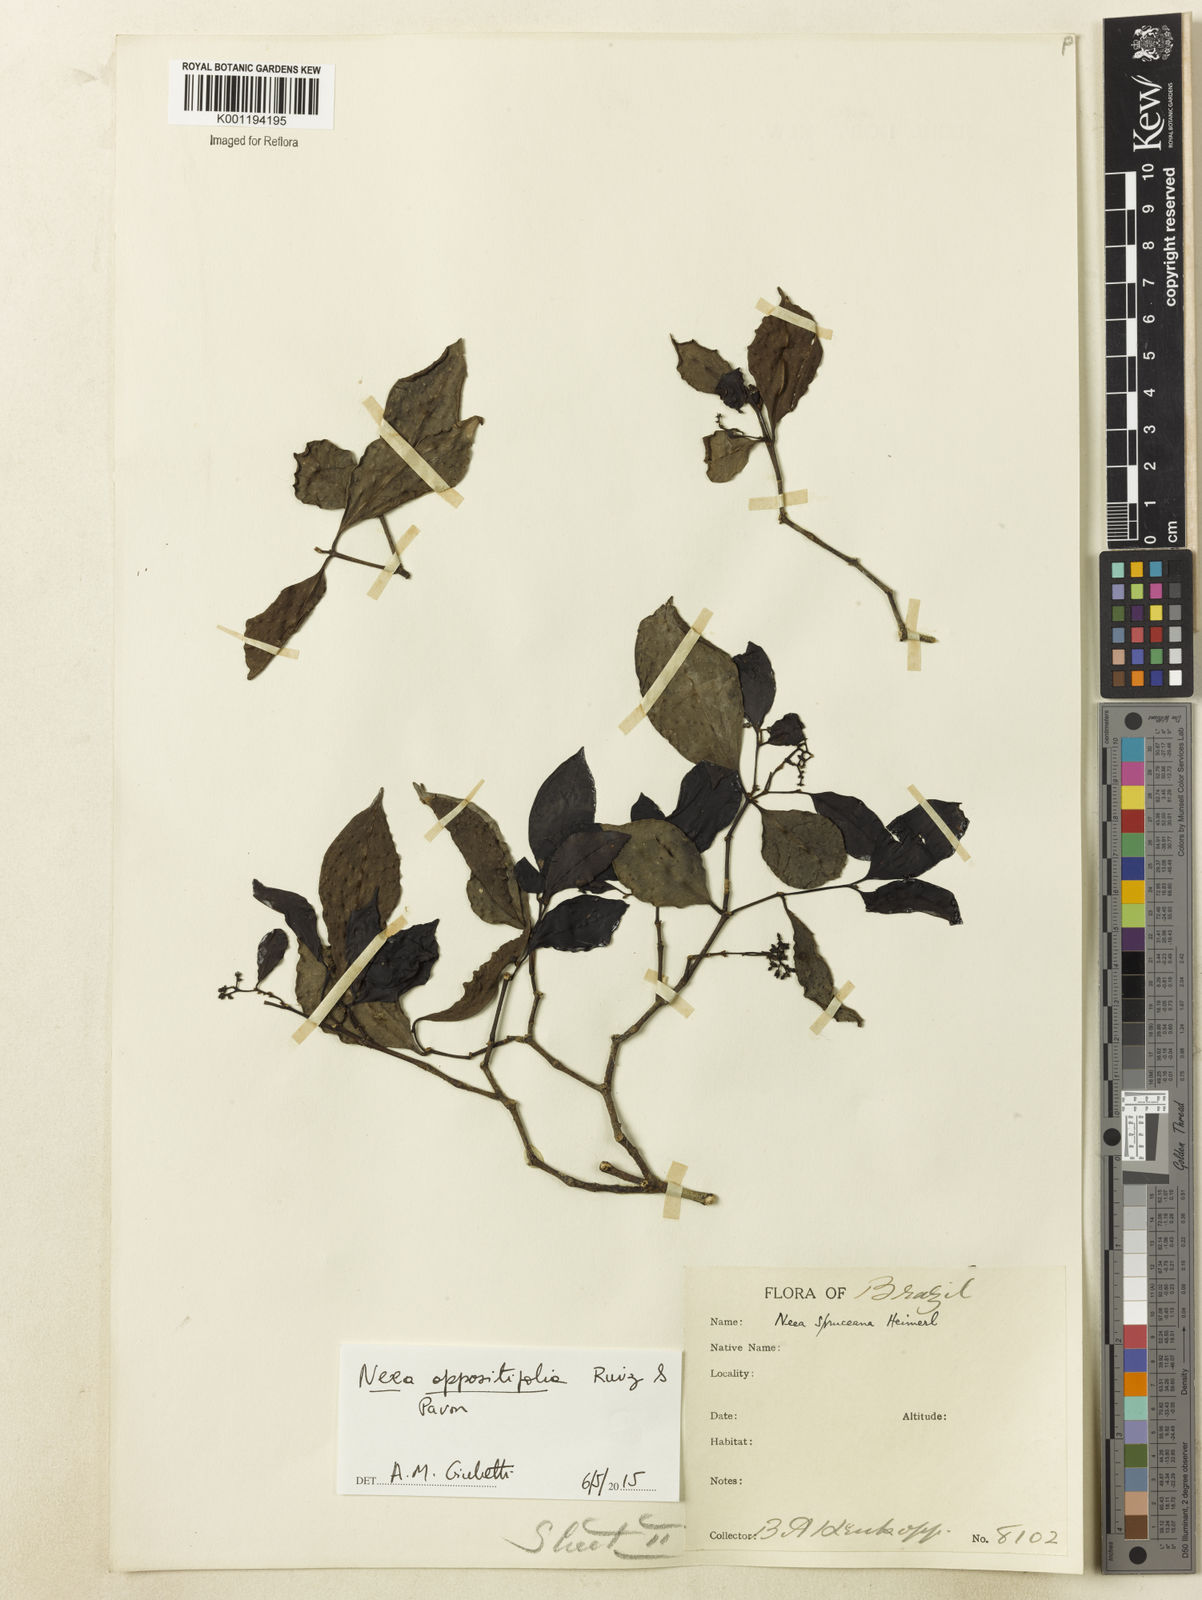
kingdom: Plantae
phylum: Tracheophyta
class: Magnoliopsida
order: Caryophyllales
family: Nyctaginaceae
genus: Neea
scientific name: Neea oppositifolia
